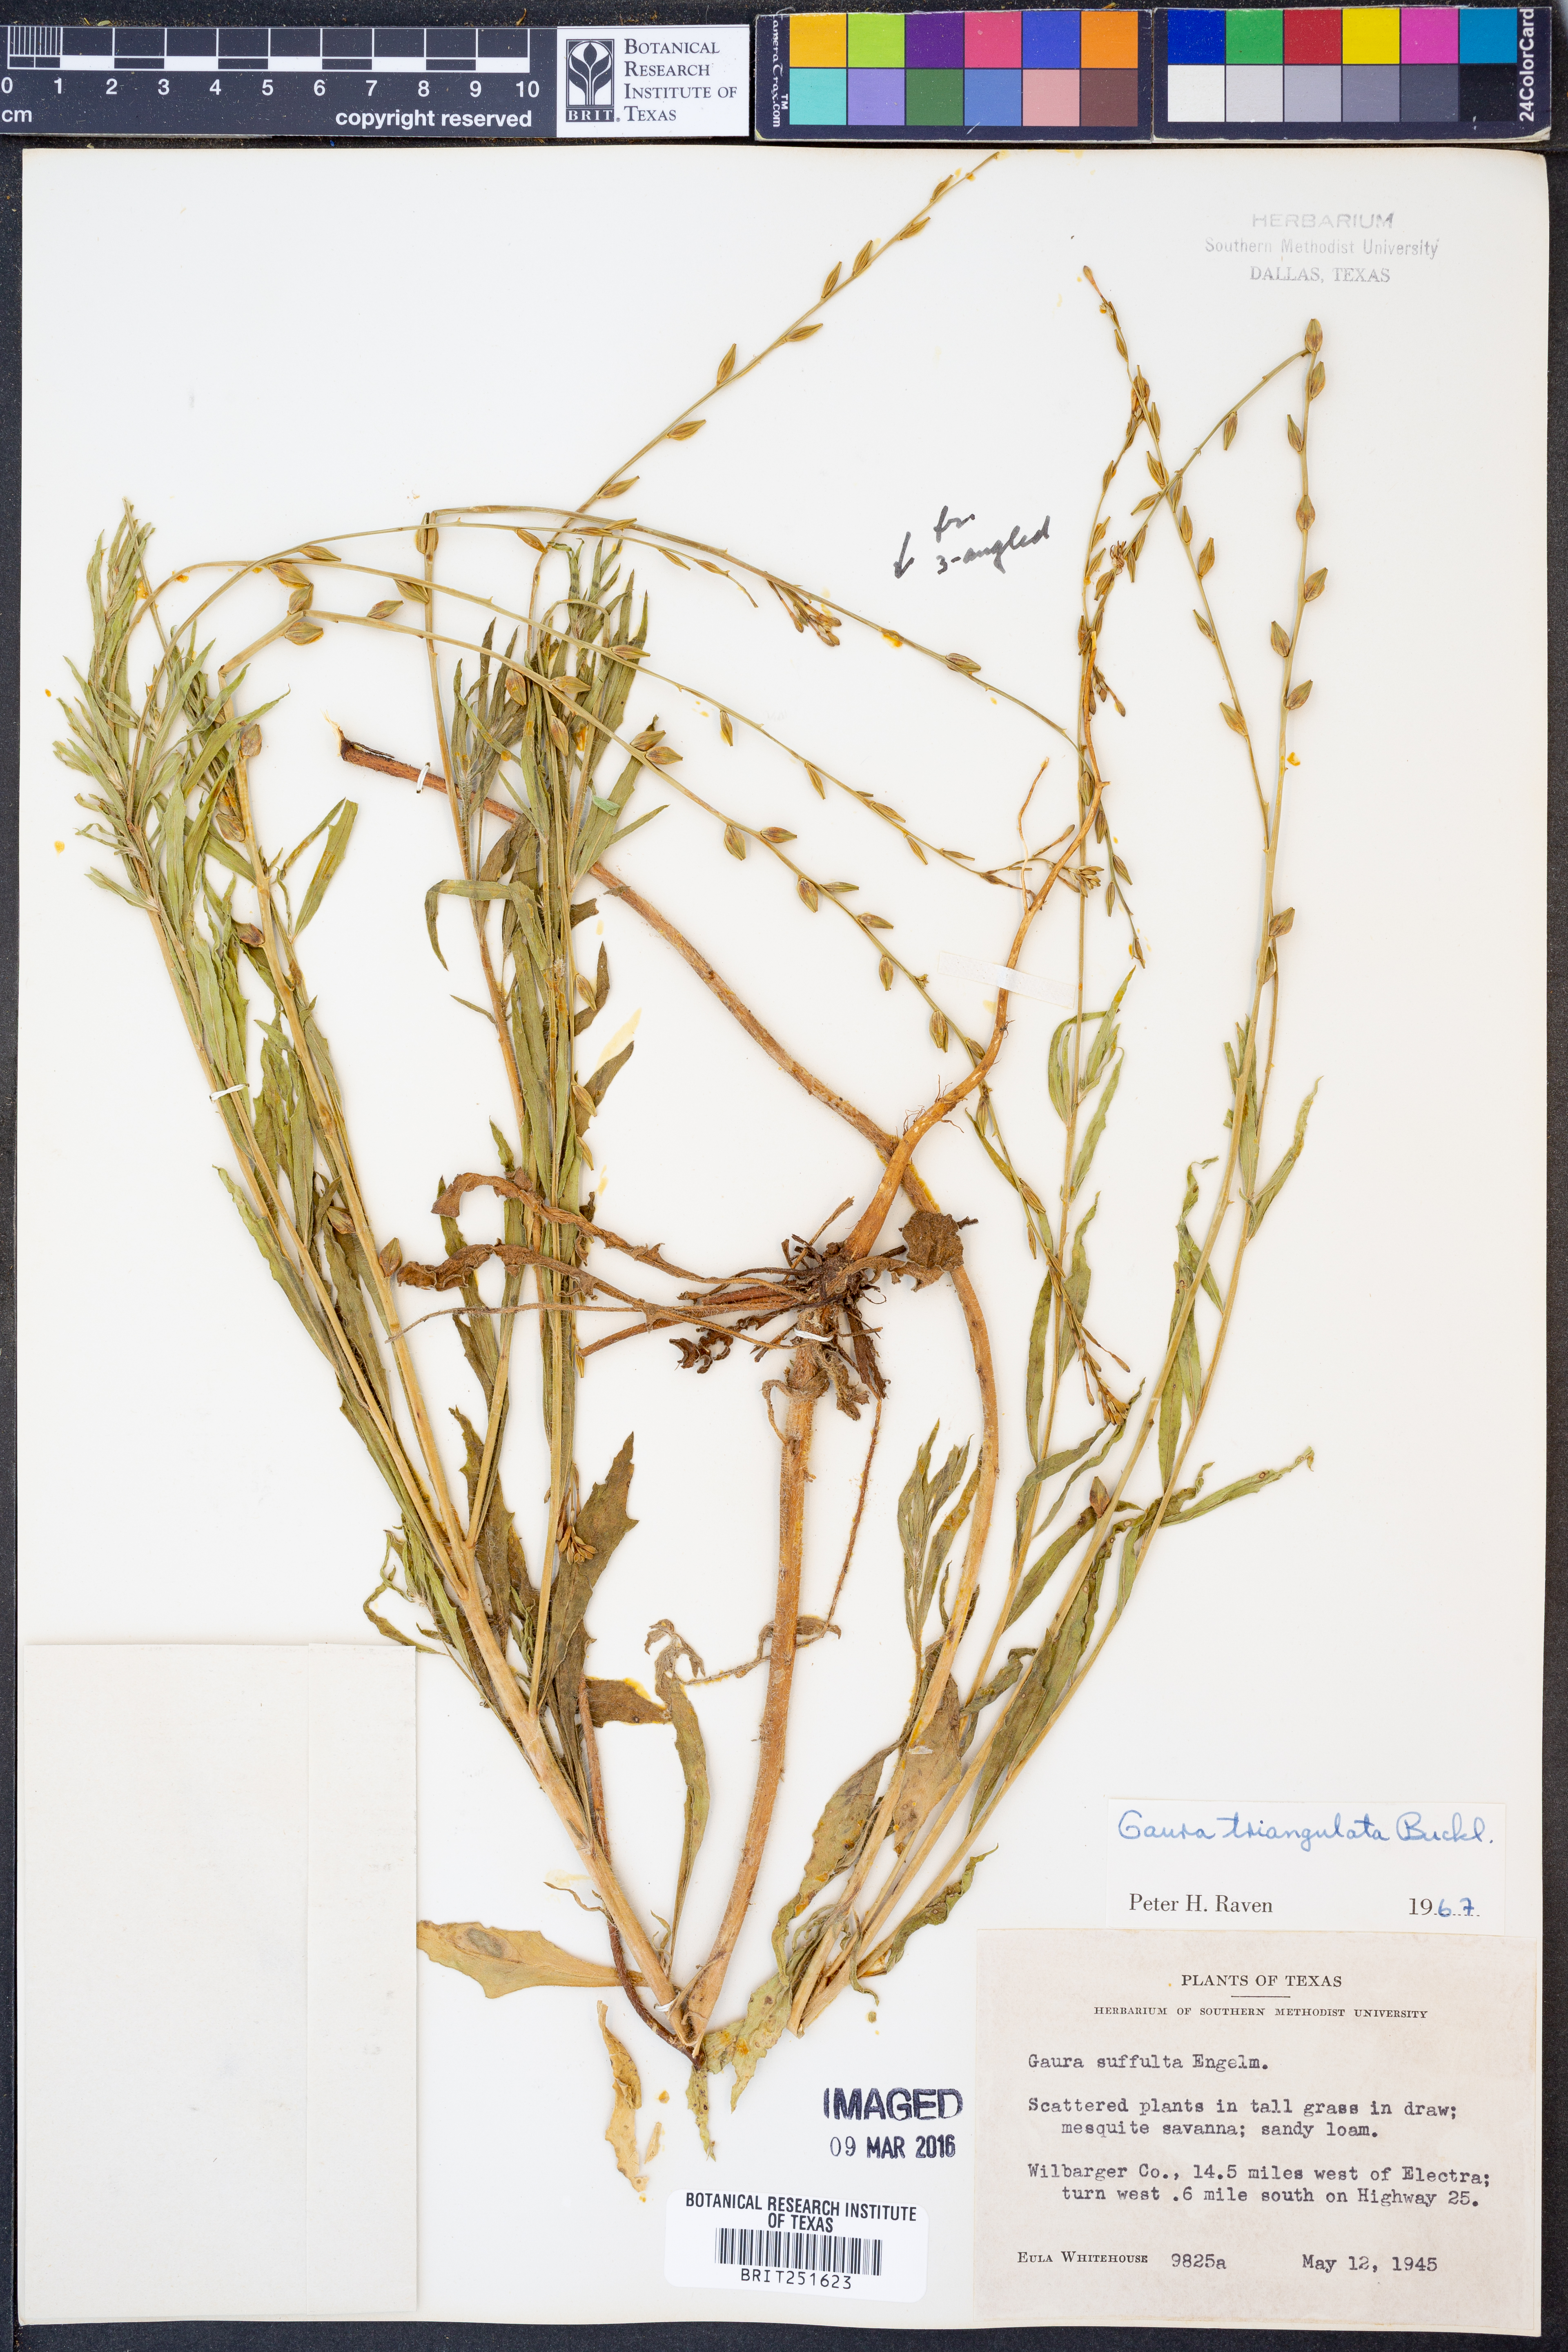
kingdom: Plantae
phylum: Tracheophyta
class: Magnoliopsida
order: Myrtales
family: Onagraceae
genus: Oenothera
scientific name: Oenothera triangulata
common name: Prairie beeblossom
